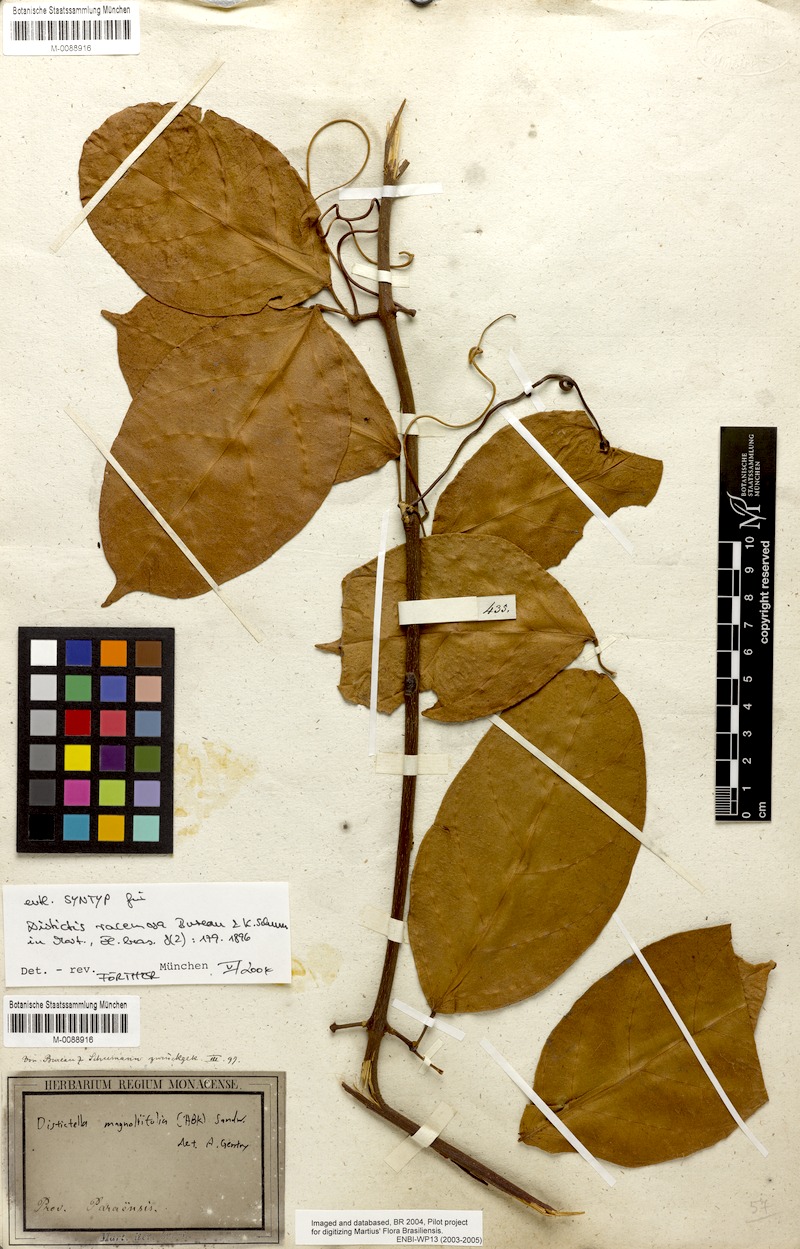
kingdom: Plantae
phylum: Tracheophyta
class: Magnoliopsida
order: Lamiales
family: Bignoniaceae
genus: Amphilophium
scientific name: Amphilophium magnoliifolium
